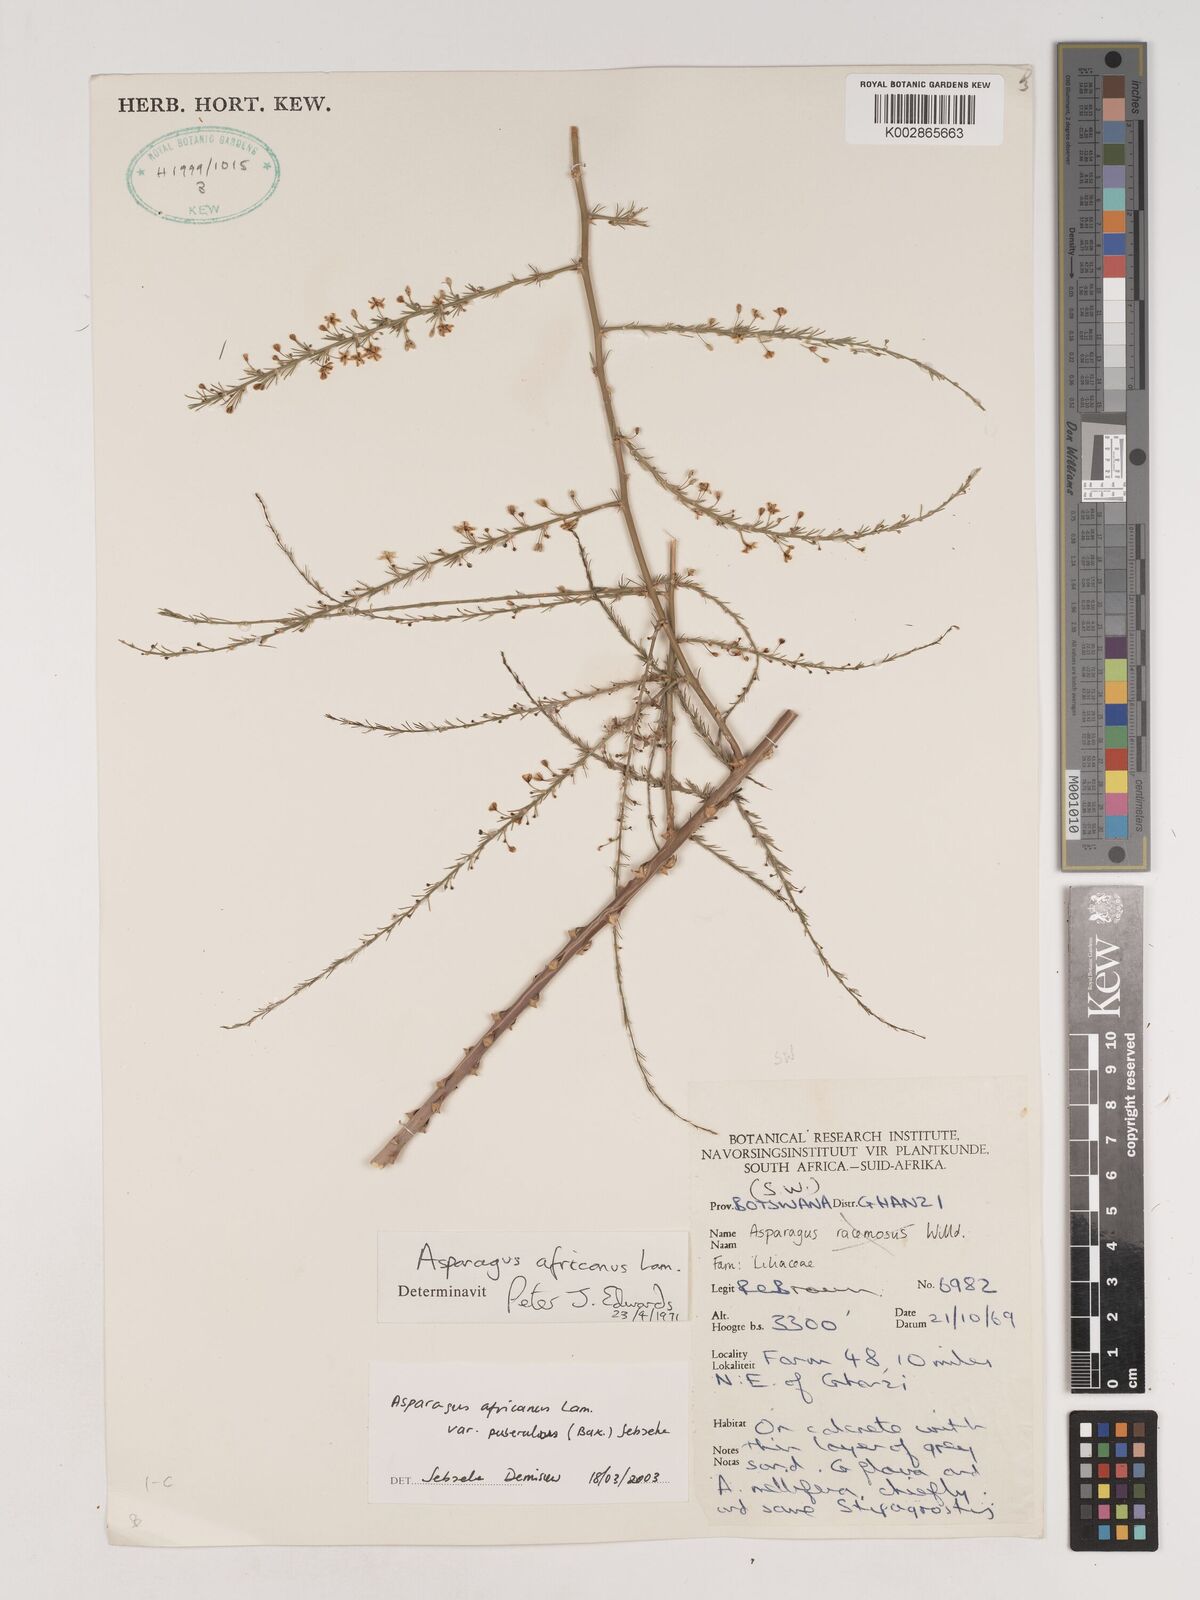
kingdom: Plantae
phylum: Tracheophyta
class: Liliopsida
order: Asparagales
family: Asparagaceae
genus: Asparagus
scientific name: Asparagus africanus
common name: Asparagus-fern
